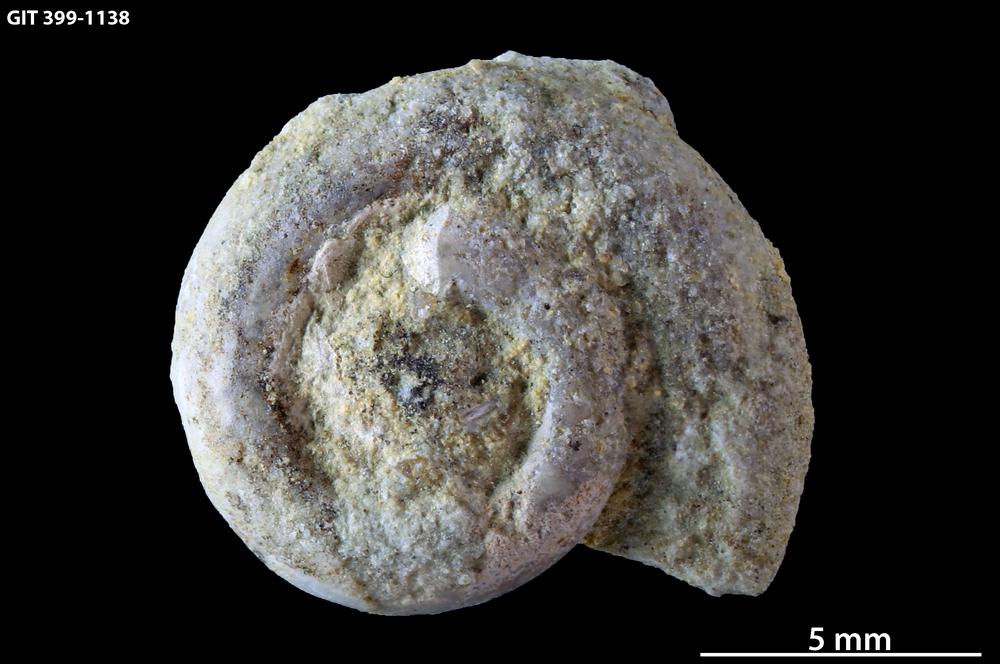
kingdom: Animalia
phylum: Mollusca
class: Gastropoda
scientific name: Gastropoda
